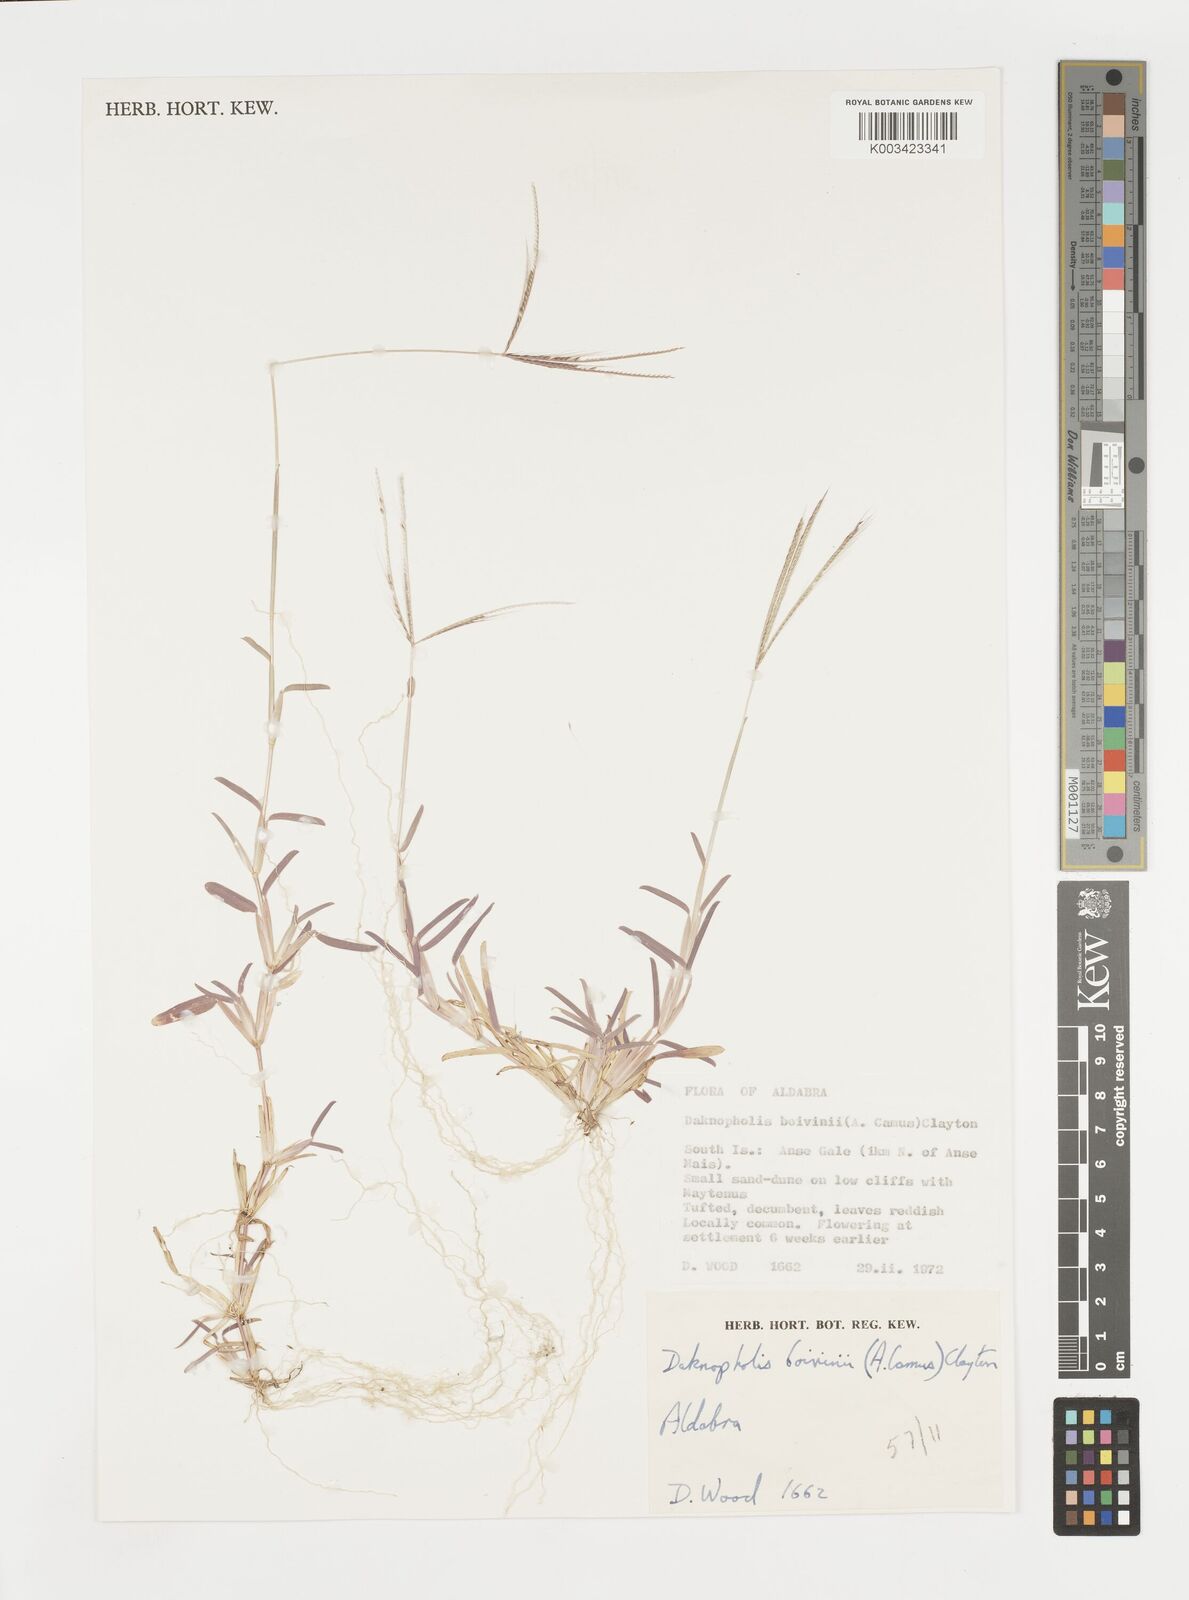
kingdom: Plantae
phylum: Tracheophyta
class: Liliopsida
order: Poales
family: Poaceae
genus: Daknopholis
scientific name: Daknopholis boivinii
